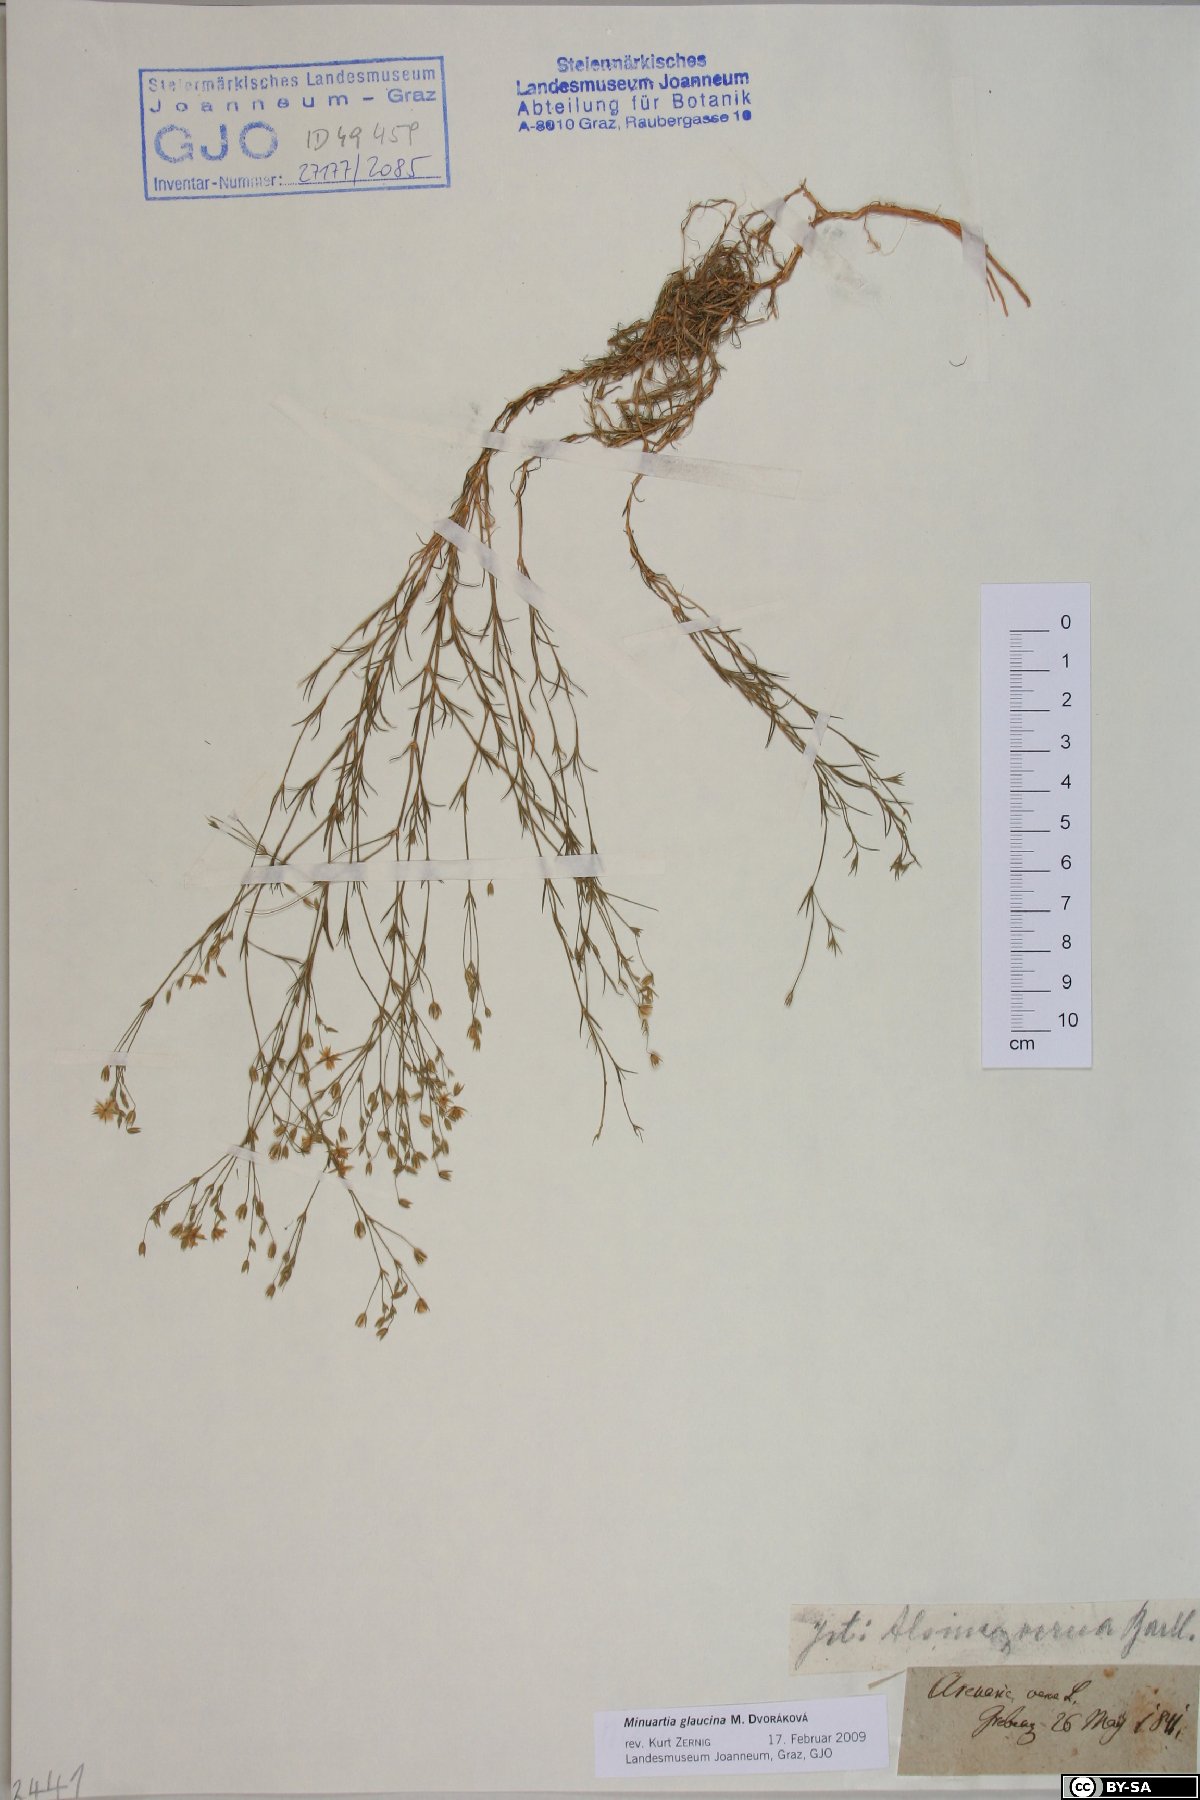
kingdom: Plantae
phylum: Tracheophyta
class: Magnoliopsida
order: Caryophyllales
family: Caryophyllaceae
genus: Sabulina
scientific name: Sabulina glaucina
